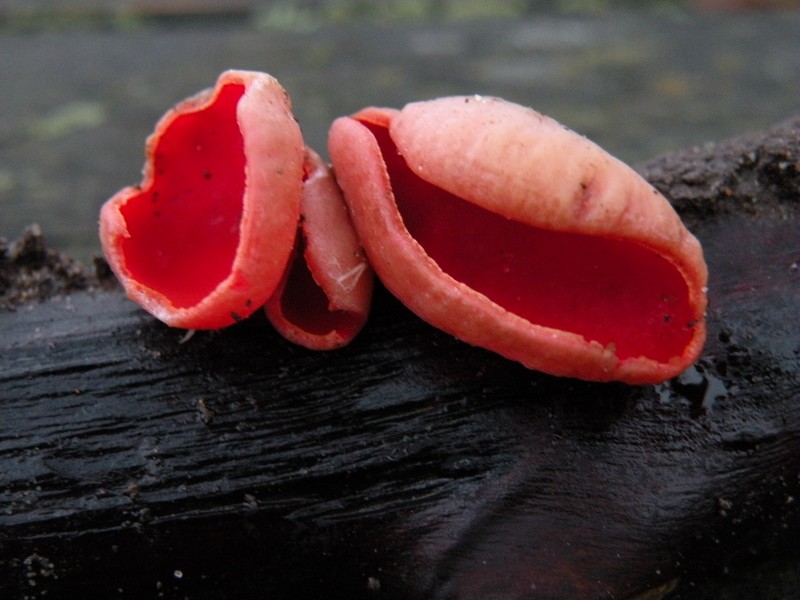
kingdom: Fungi
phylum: Ascomycota
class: Pezizomycetes
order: Pezizales
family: Sarcoscyphaceae
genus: Sarcoscypha
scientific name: Sarcoscypha austriaca
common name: krølhåret pragtbæger
